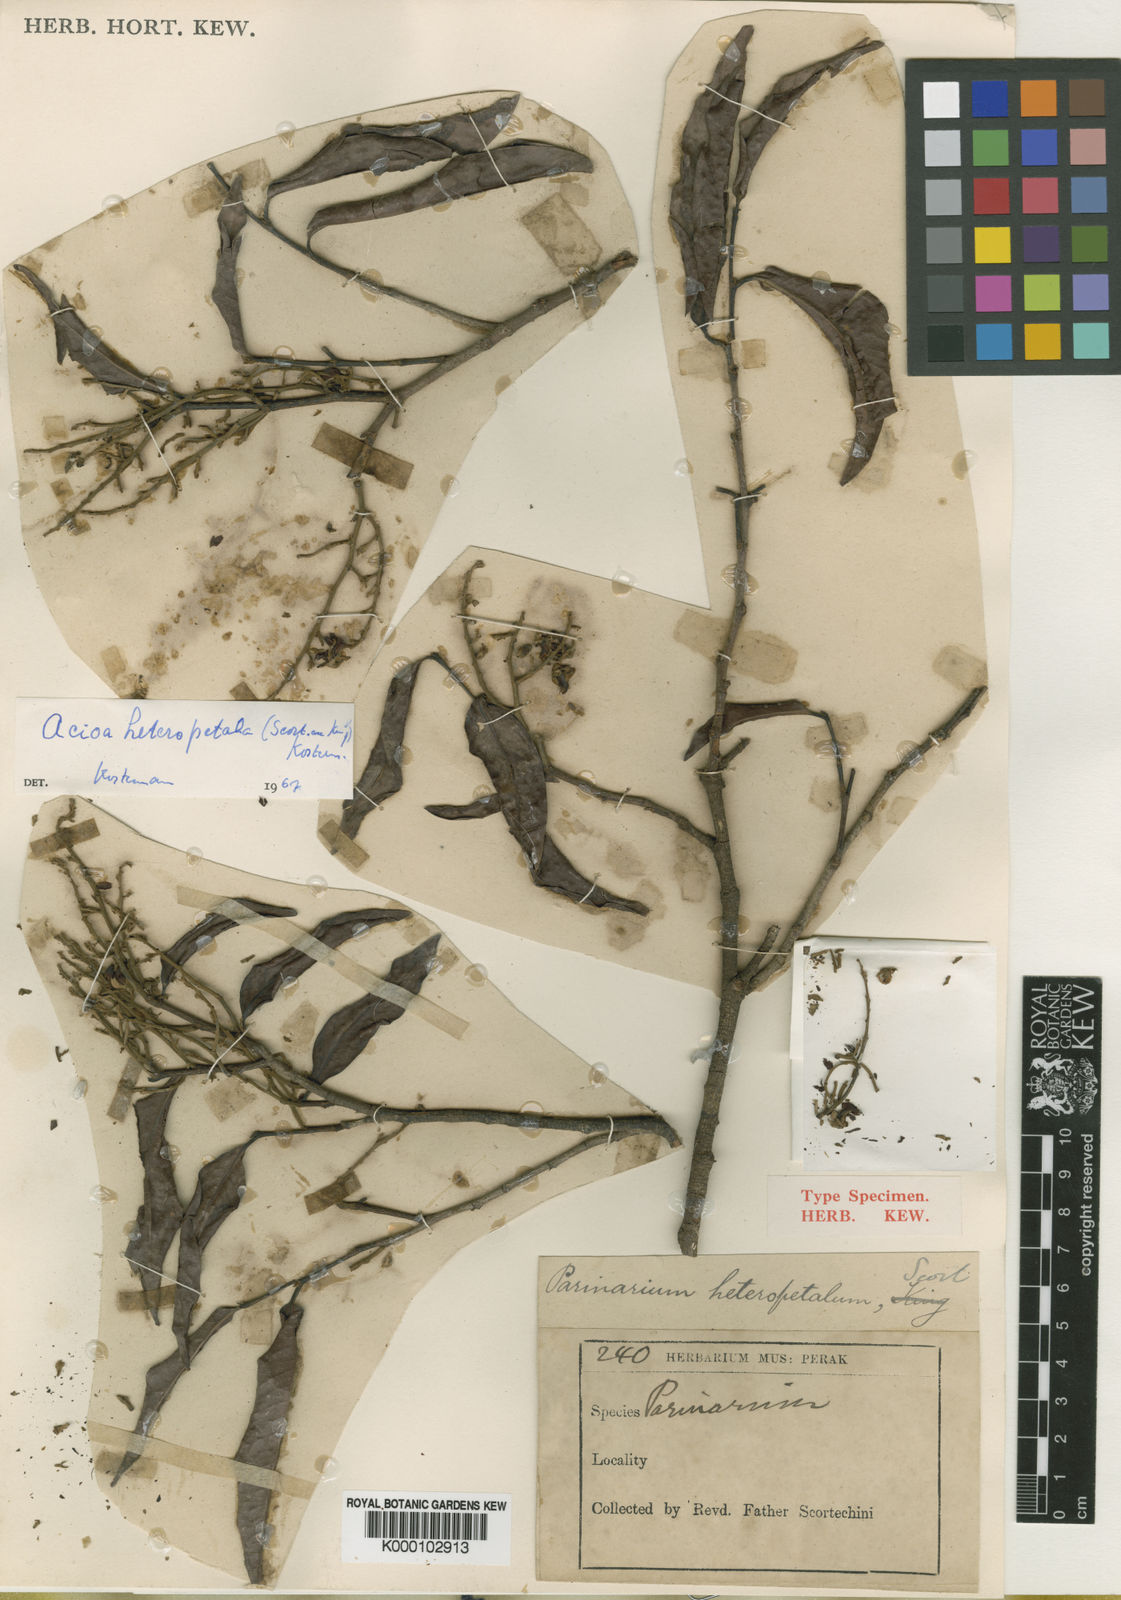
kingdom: Plantae
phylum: Tracheophyta
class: Magnoliopsida
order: Malpighiales
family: Chrysobalanaceae
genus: Kostermanthus
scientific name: Kostermanthus heteropetalus
